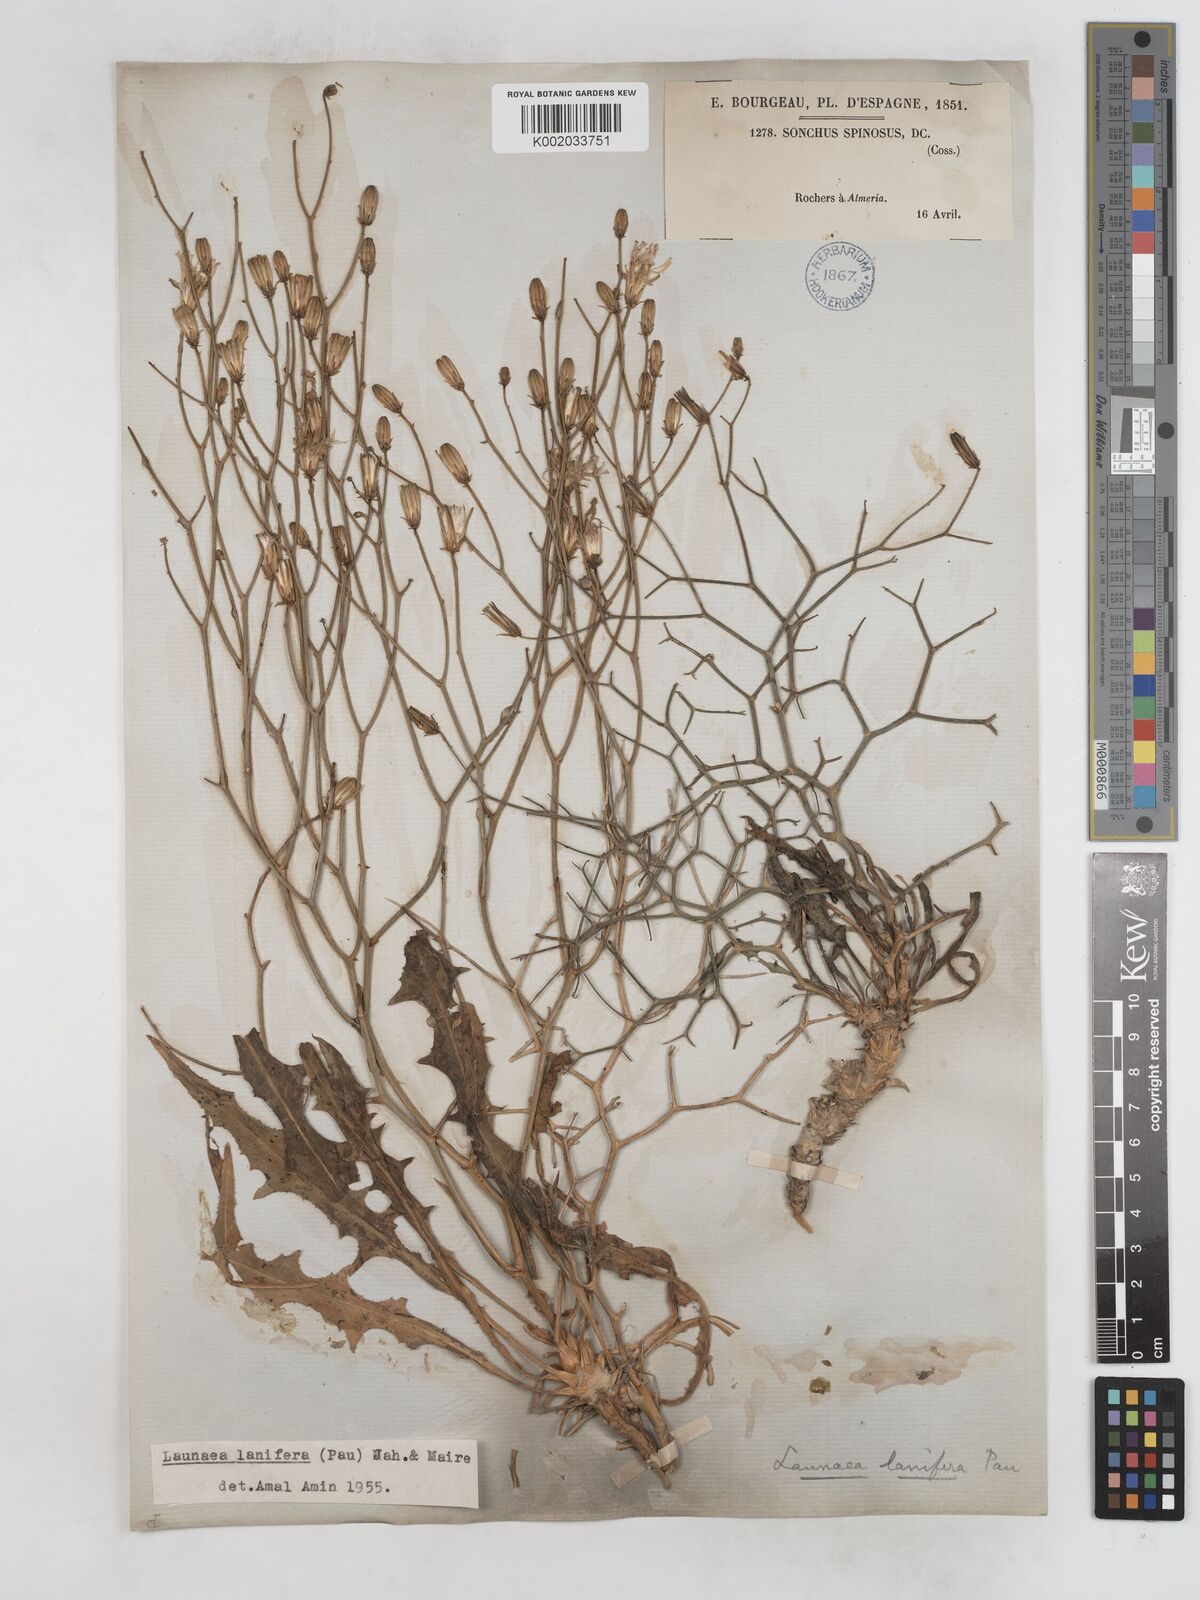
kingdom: Plantae
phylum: Tracheophyta
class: Magnoliopsida
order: Asterales
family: Asteraceae
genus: Launaea
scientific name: Launaea lanifera
